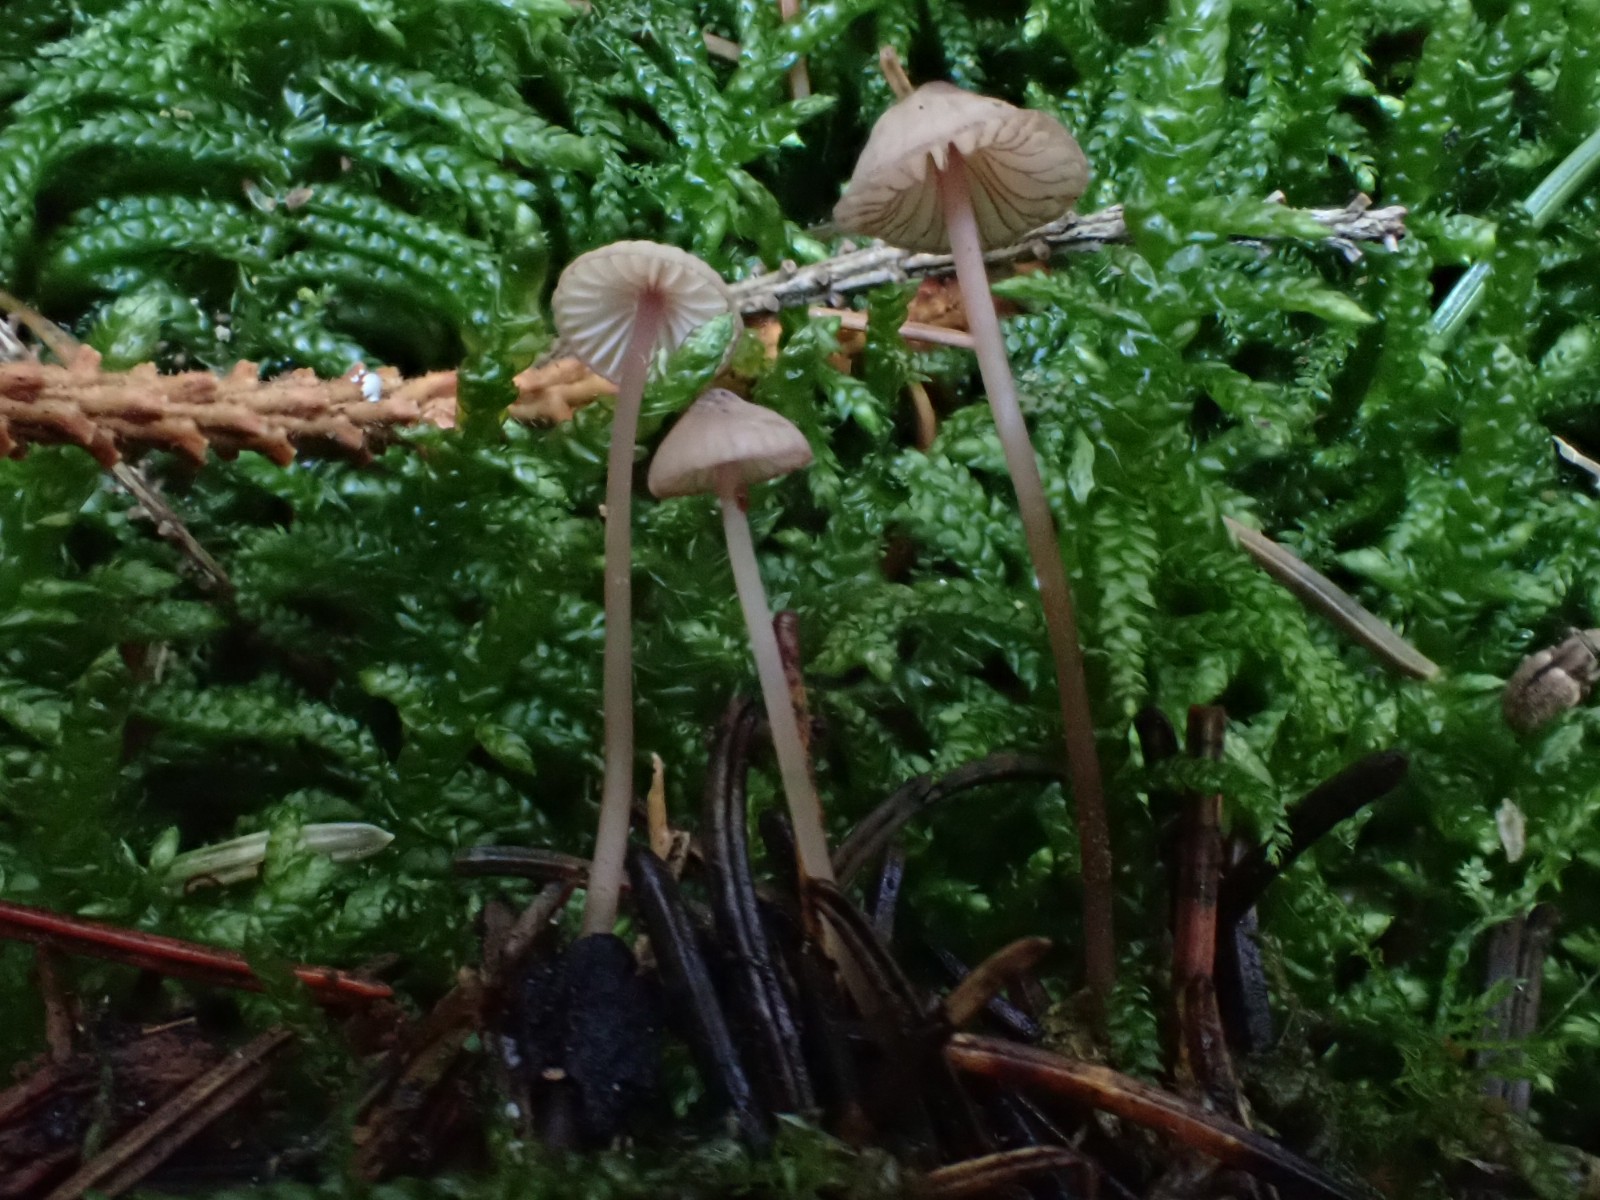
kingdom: Fungi
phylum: Basidiomycota
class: Agaricomycetes
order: Agaricales
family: Mycenaceae
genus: Mycena
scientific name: Mycena sanguinolenta
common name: rødmælket huesvamp
